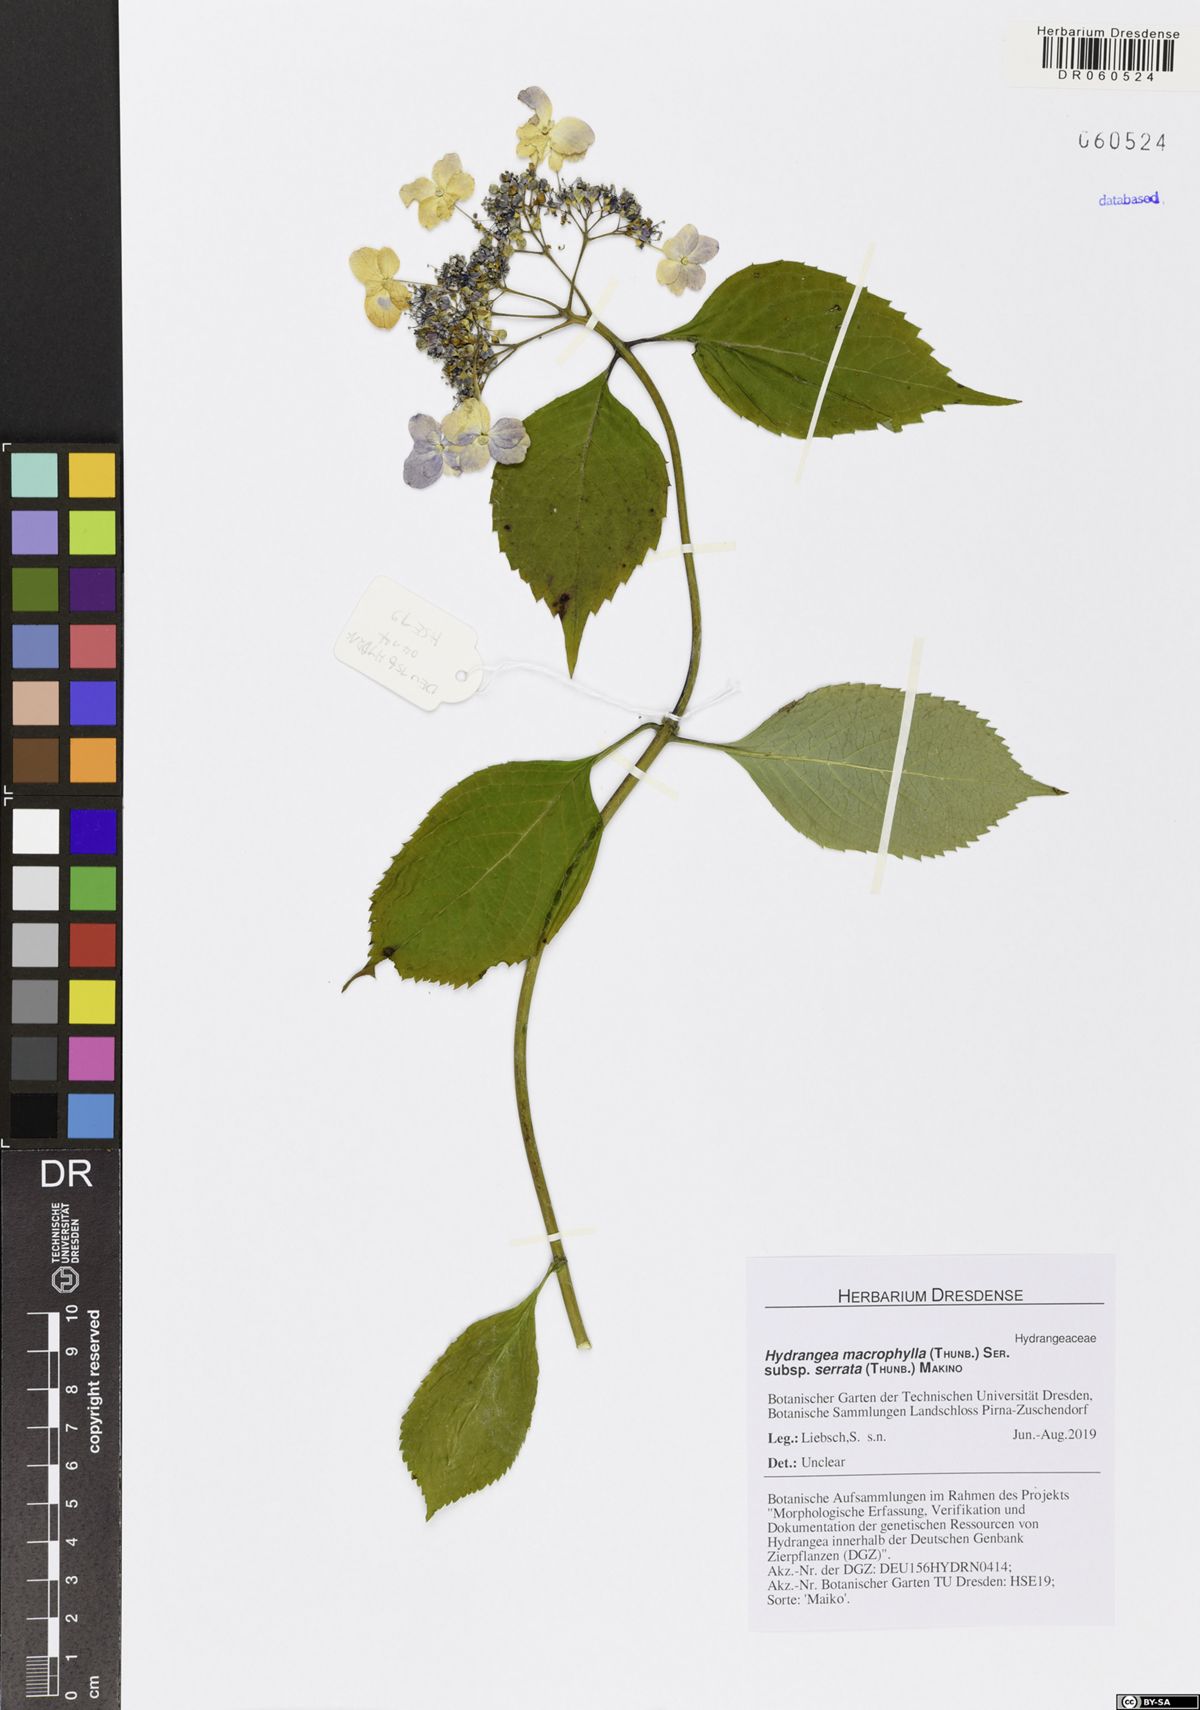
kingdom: Plantae
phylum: Tracheophyta
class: Magnoliopsida
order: Cornales
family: Hydrangeaceae
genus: Hydrangea
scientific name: Hydrangea serrata
